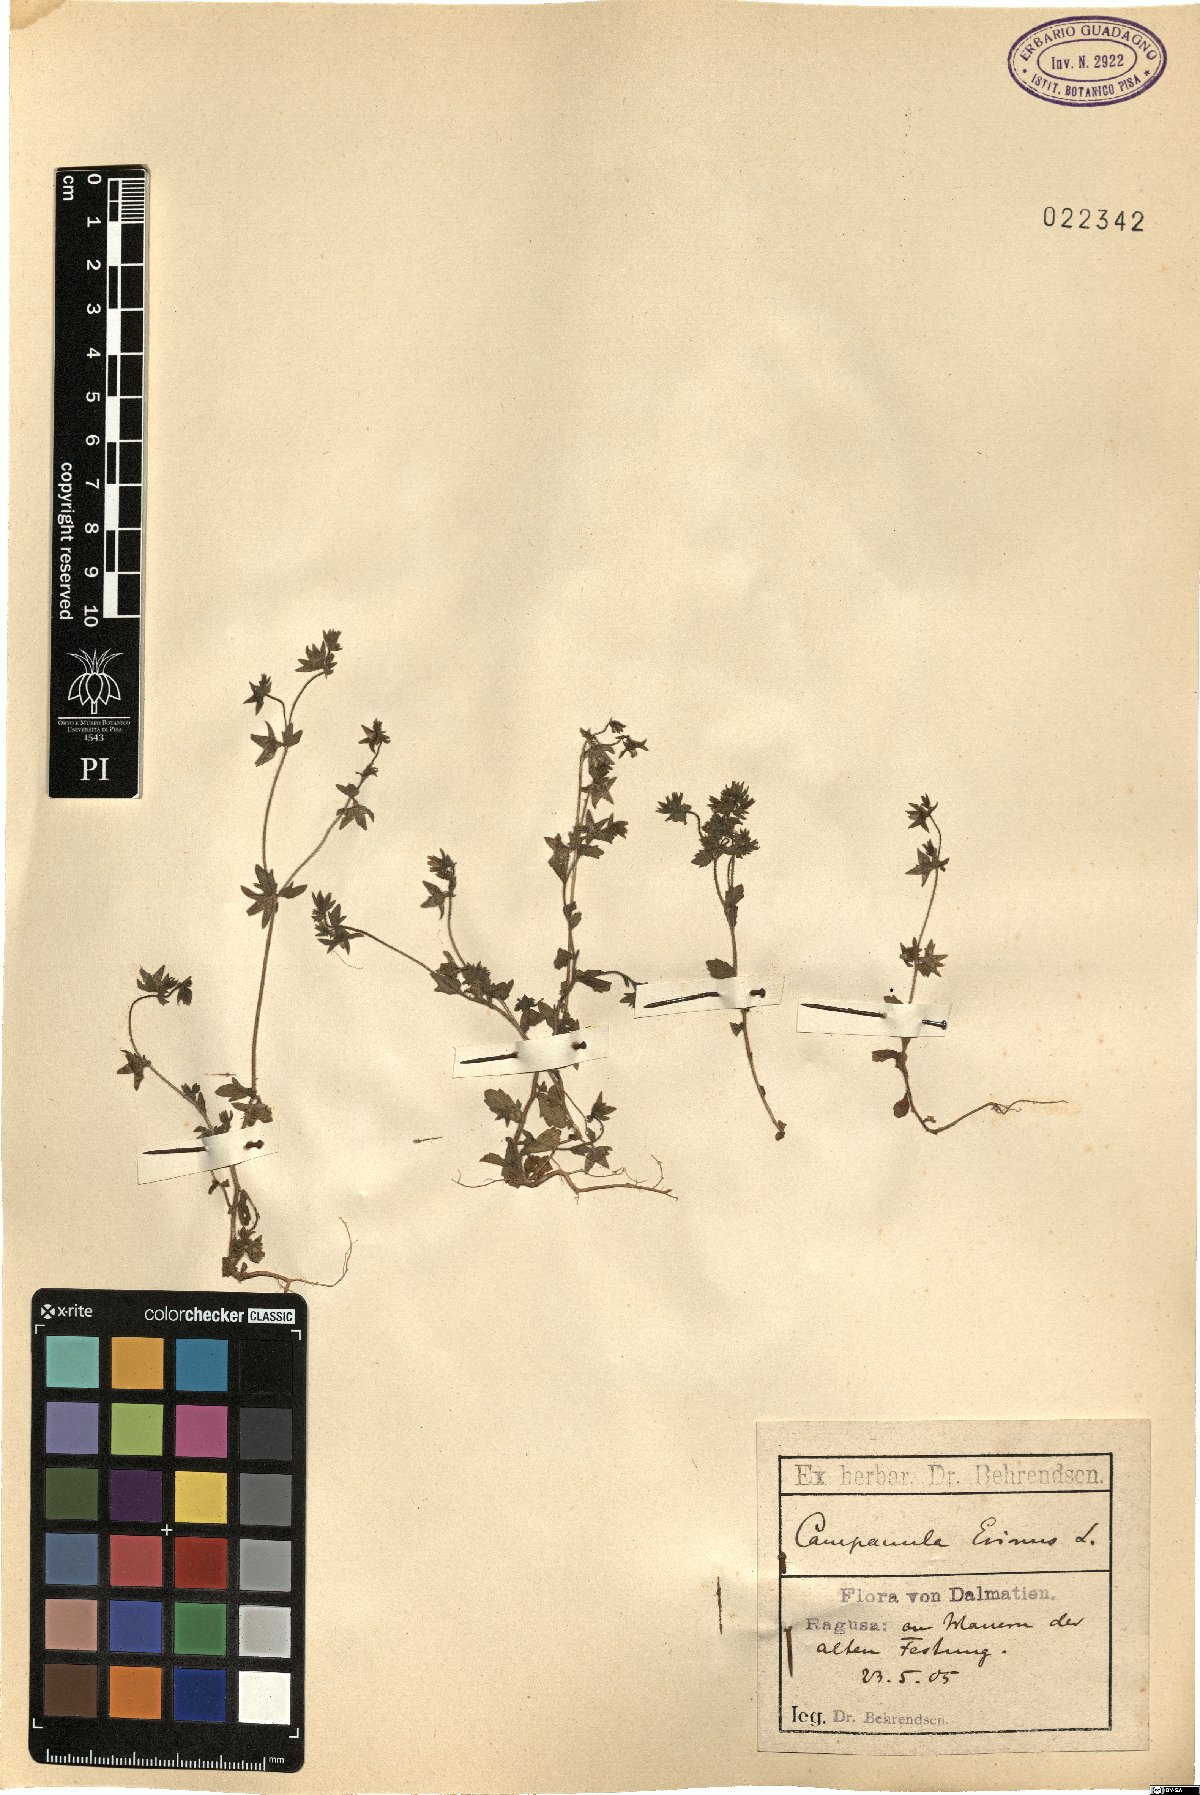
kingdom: Plantae
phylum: Tracheophyta
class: Magnoliopsida
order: Asterales
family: Campanulaceae
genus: Campanula
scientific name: Campanula erinus
